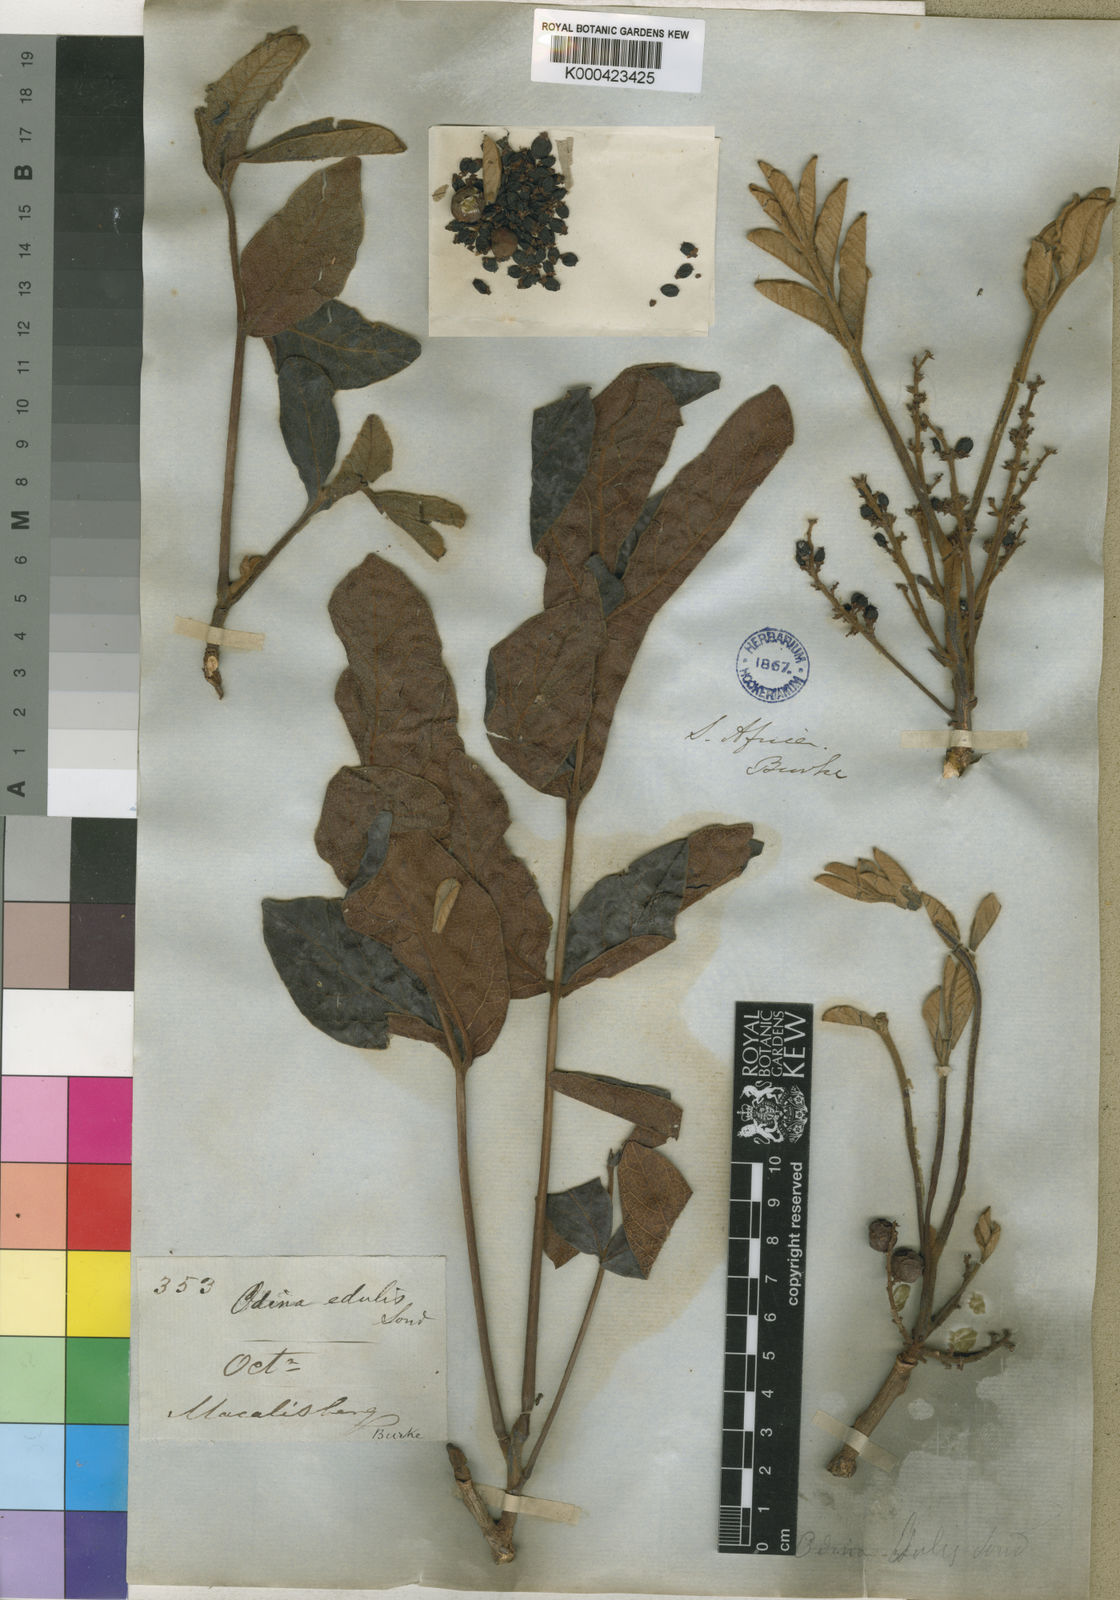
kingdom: Plantae
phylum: Tracheophyta
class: Magnoliopsida
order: Sapindales
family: Anacardiaceae
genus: Lannea
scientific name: Lannea edulis
